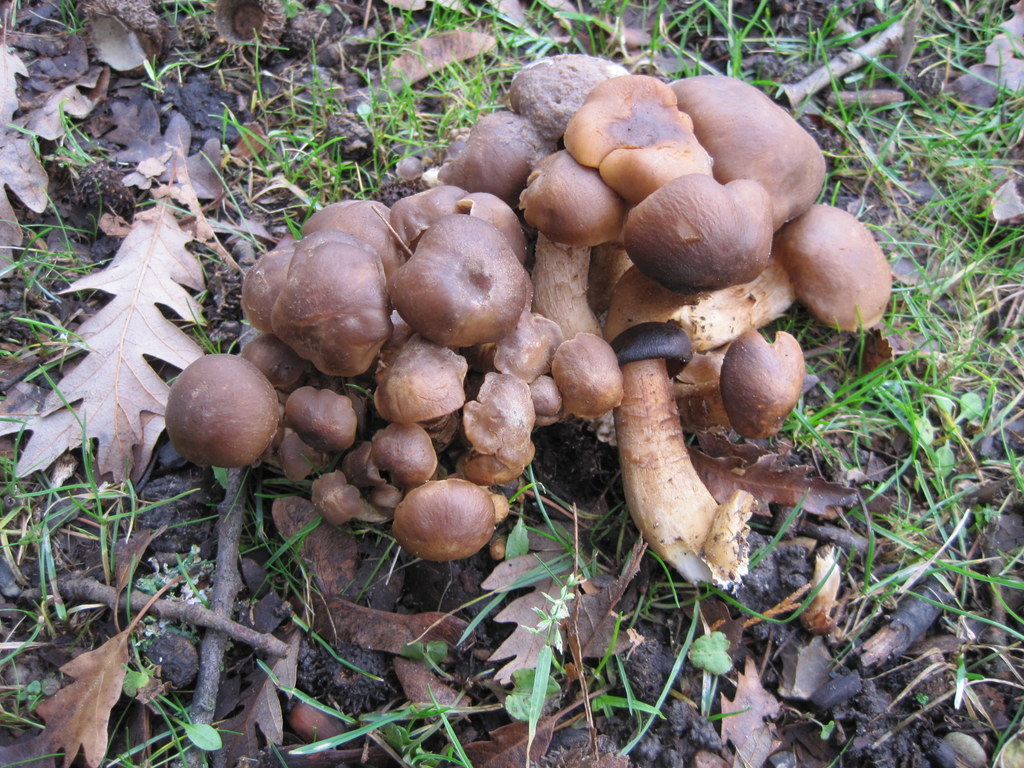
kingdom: Fungi
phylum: Basidiomycota
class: Agaricomycetes
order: Agaricales
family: Lyophyllaceae
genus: Lyophyllum
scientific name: Lyophyllum decastes
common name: Clustered domecap
